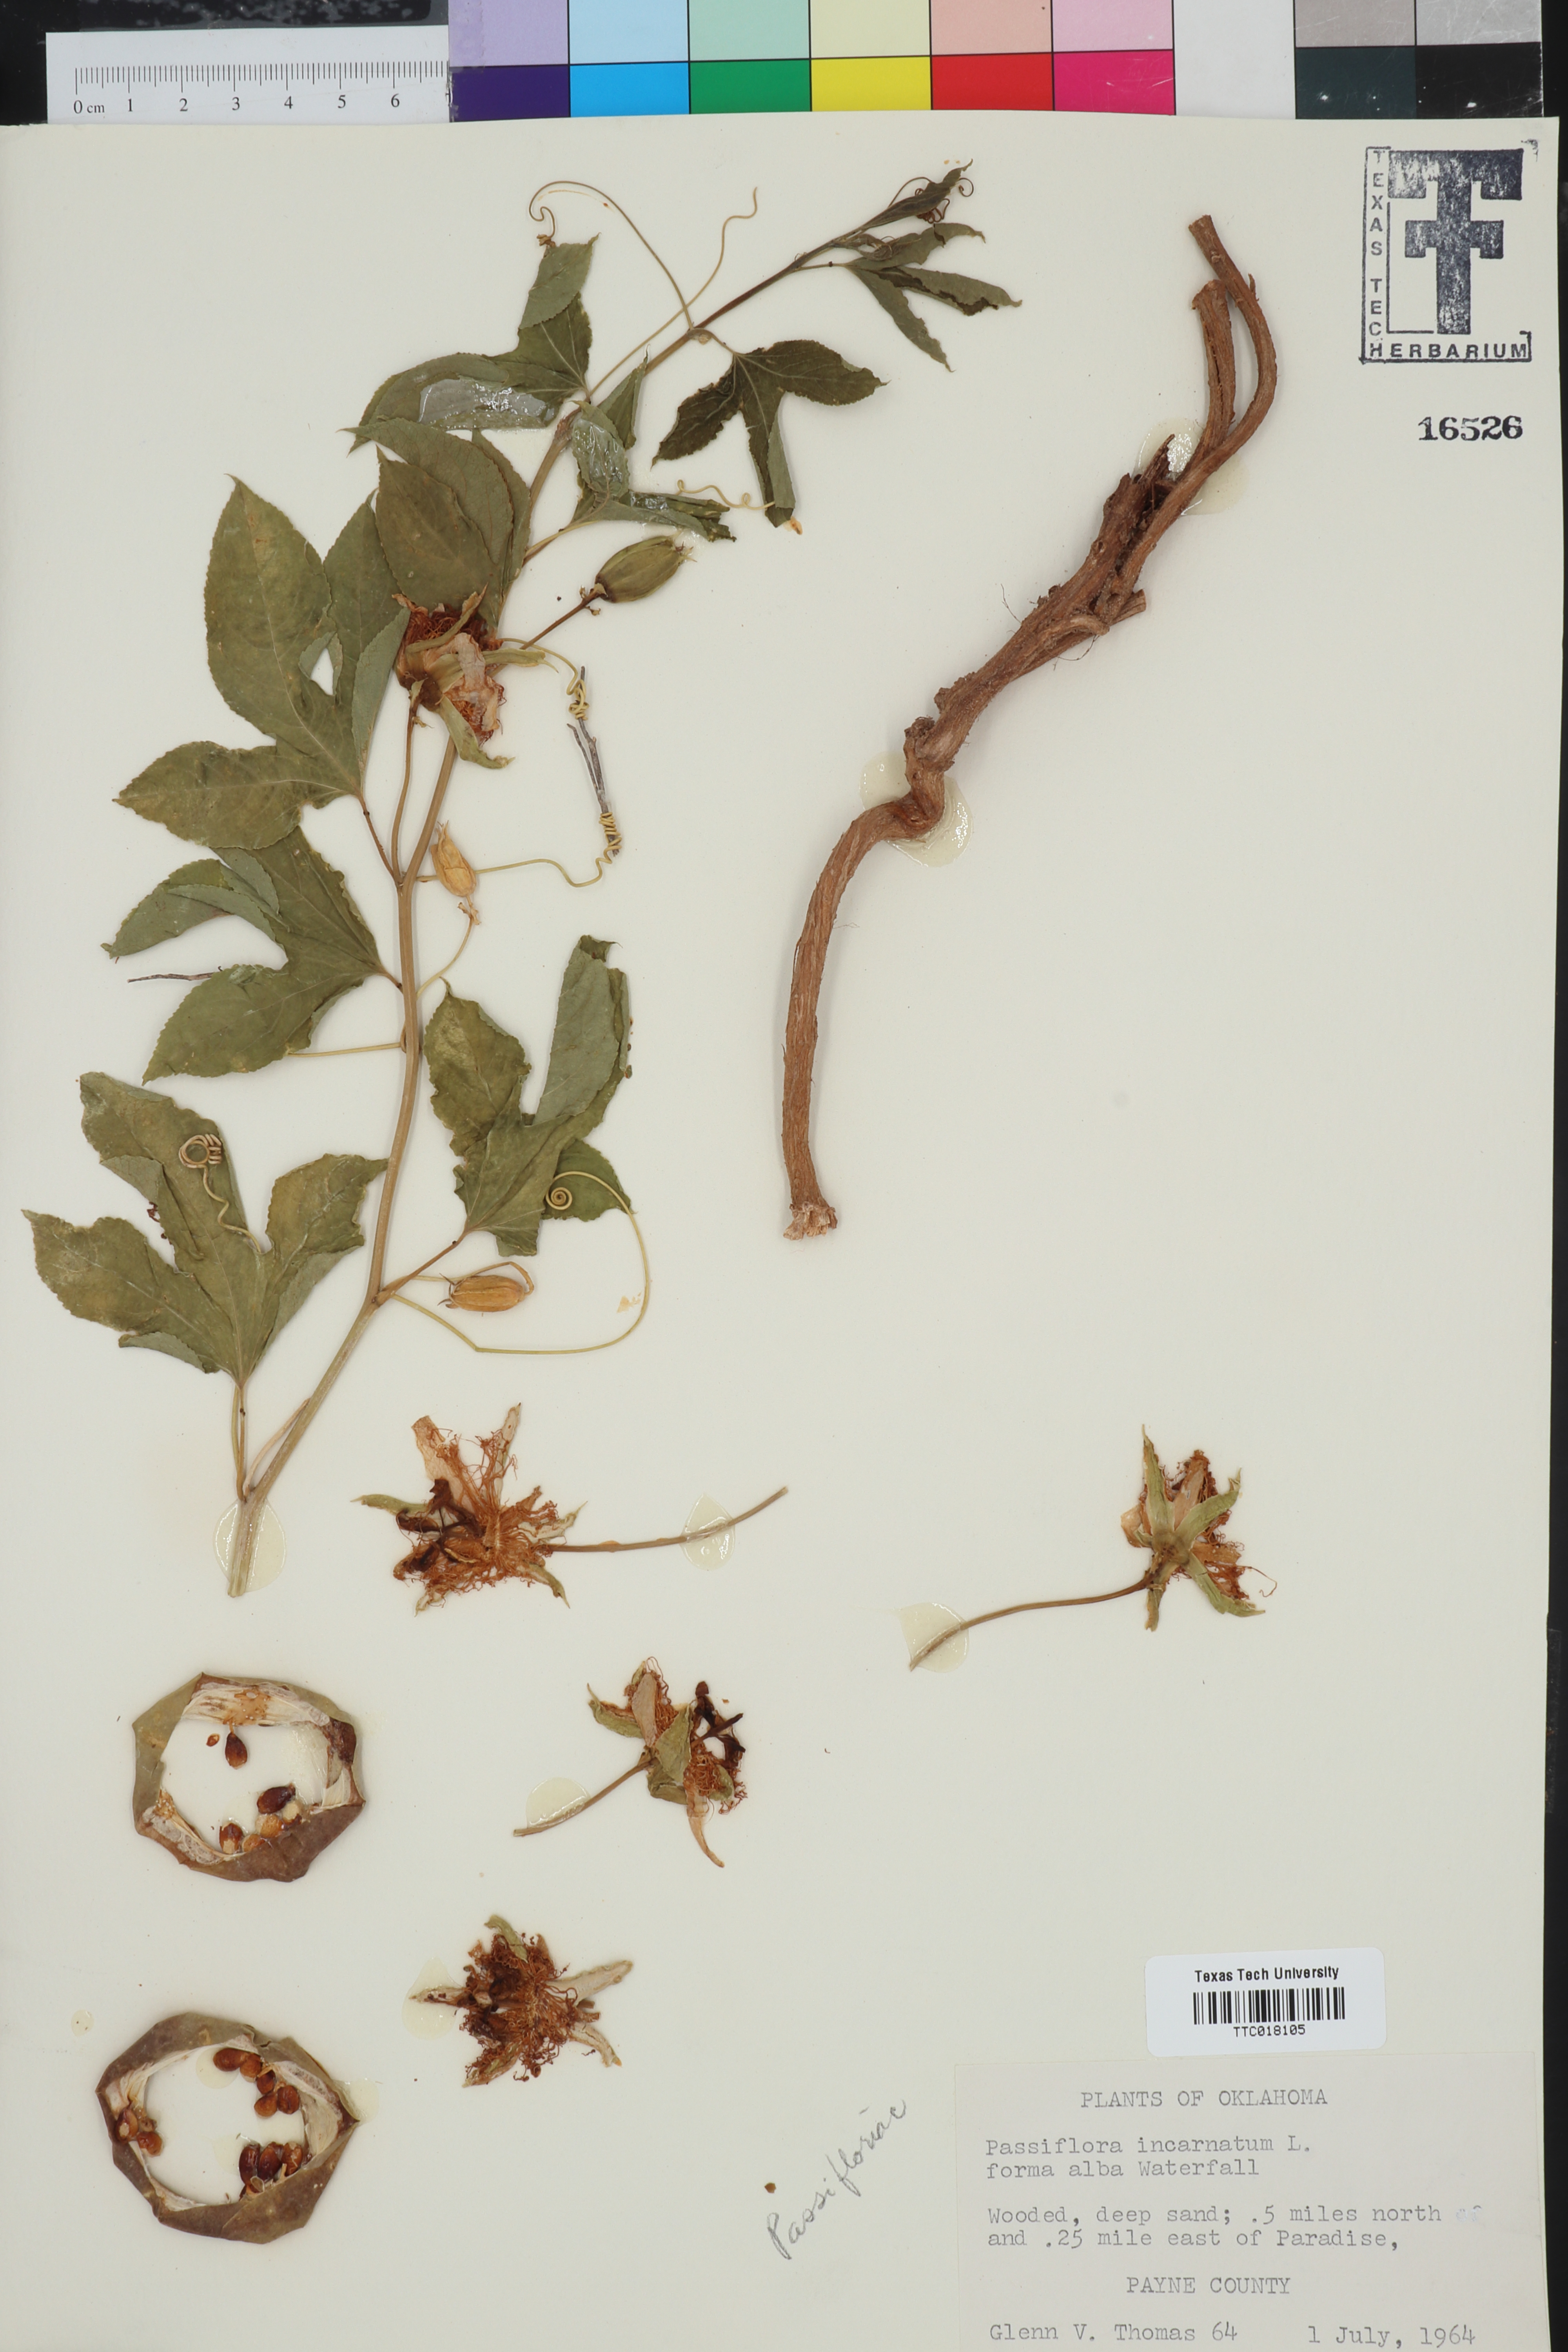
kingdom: Plantae
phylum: Tracheophyta
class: Magnoliopsida
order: Malpighiales
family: Passifloraceae
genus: Passiflora
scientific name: Passiflora incarnata
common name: Apricot-vine
